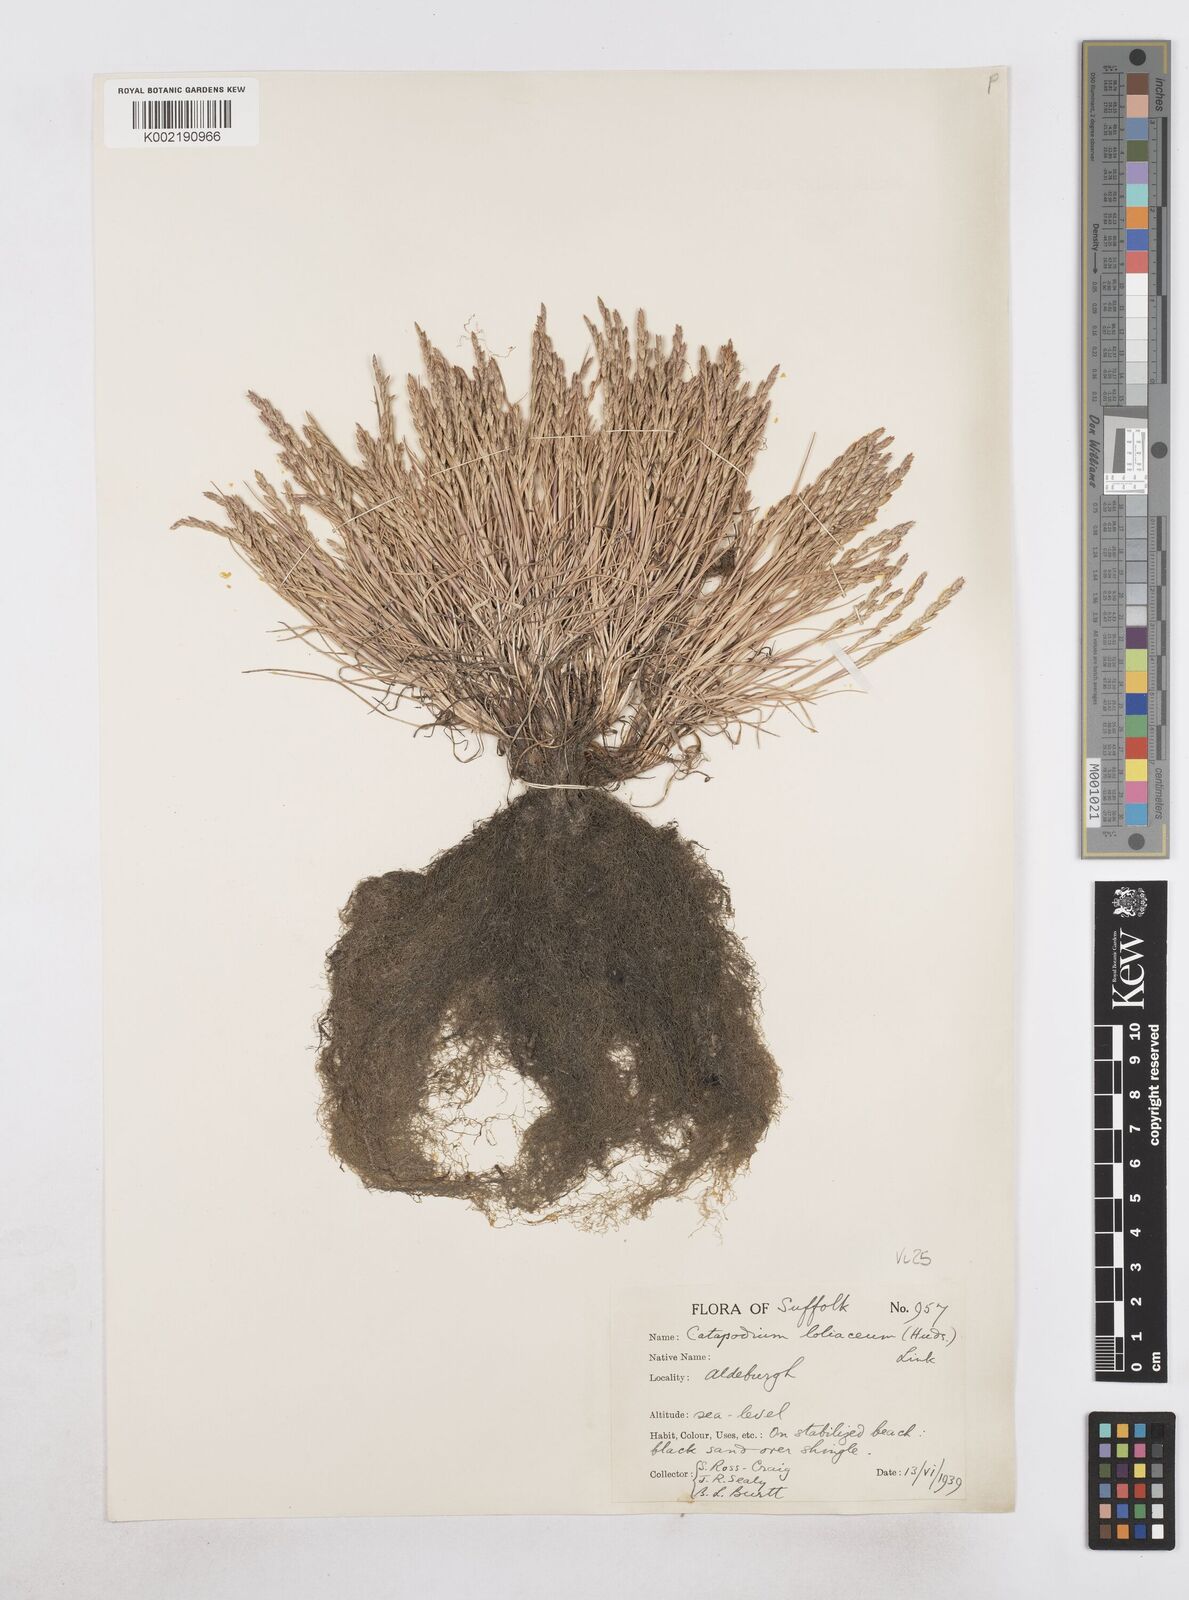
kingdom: Plantae
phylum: Tracheophyta
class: Liliopsida
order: Poales
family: Poaceae
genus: Catapodium
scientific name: Catapodium marinum
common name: Sea fern-grass
